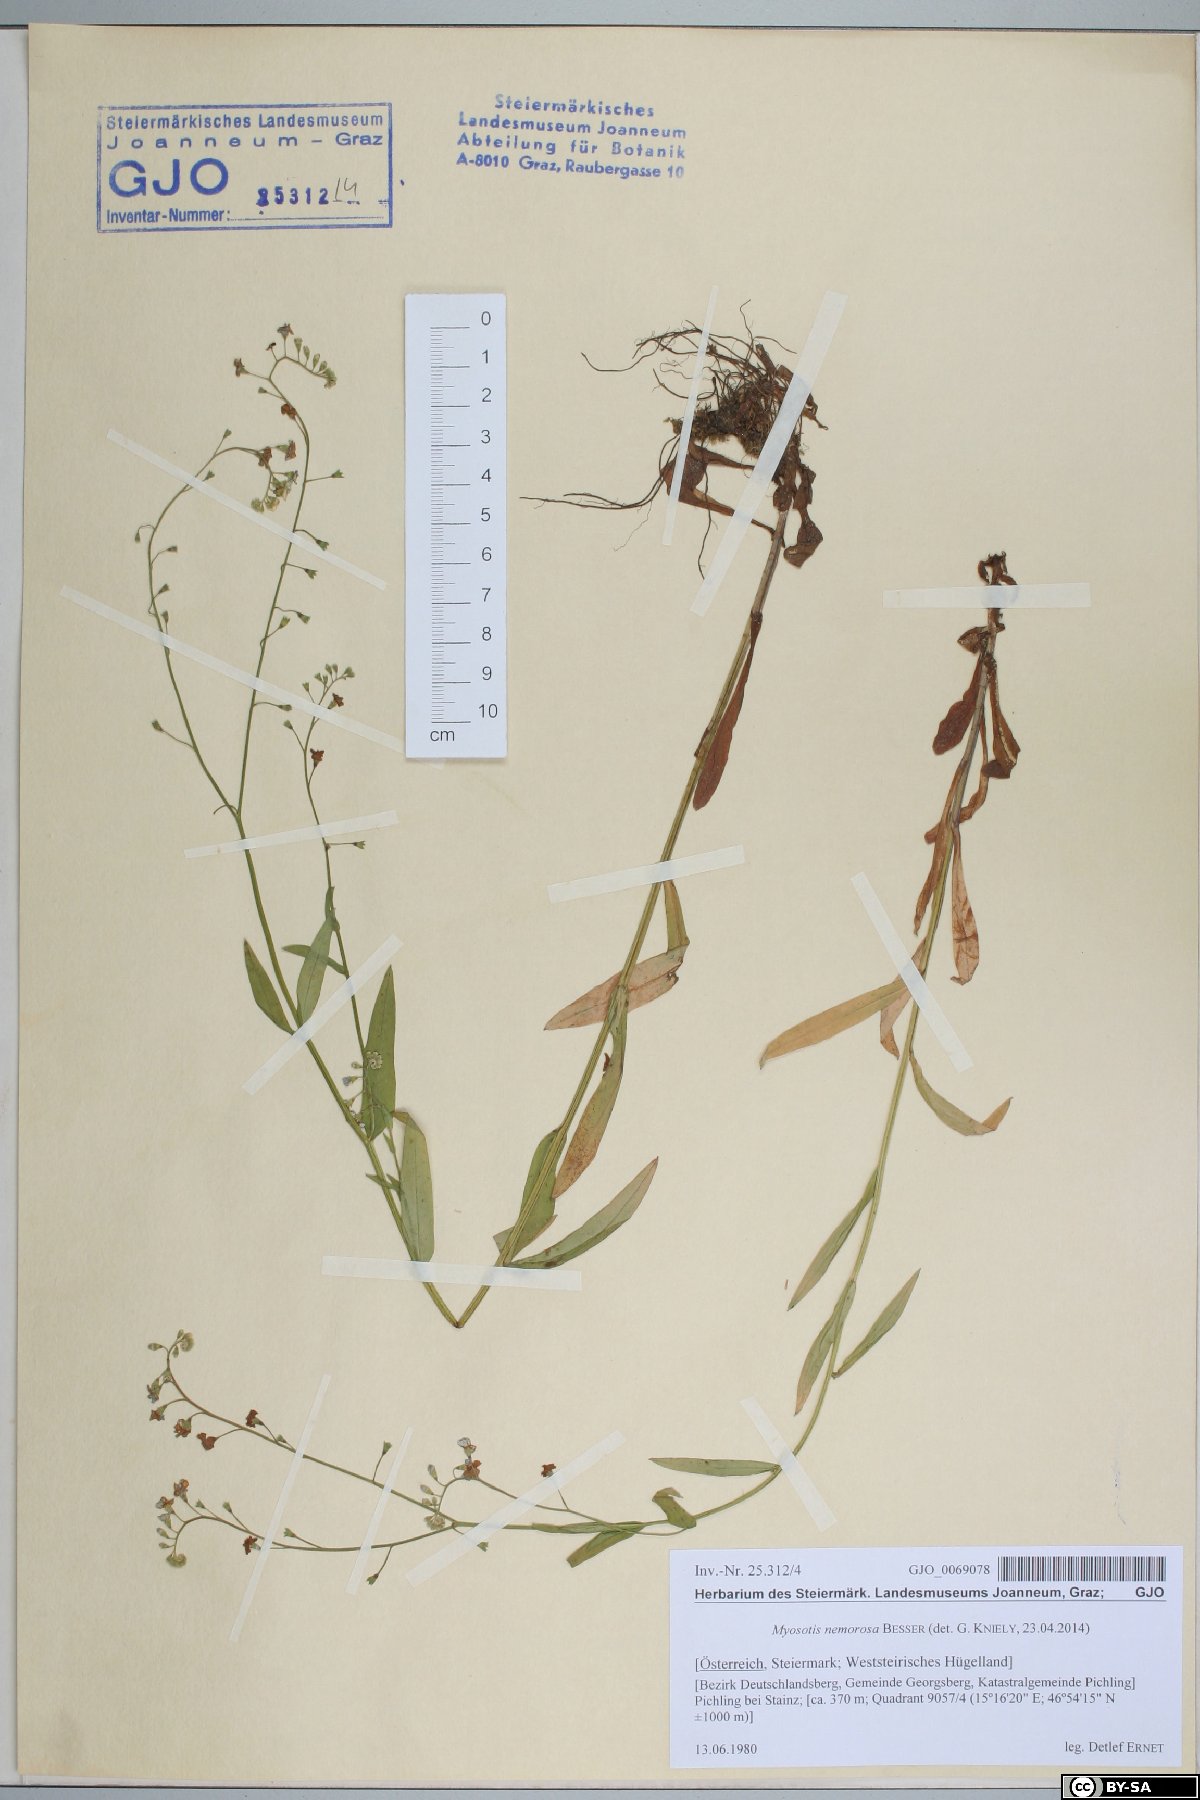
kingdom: Plantae
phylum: Tracheophyta
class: Magnoliopsida
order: Boraginales
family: Boraginaceae
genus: Myosotis
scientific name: Myosotis nemorosa
